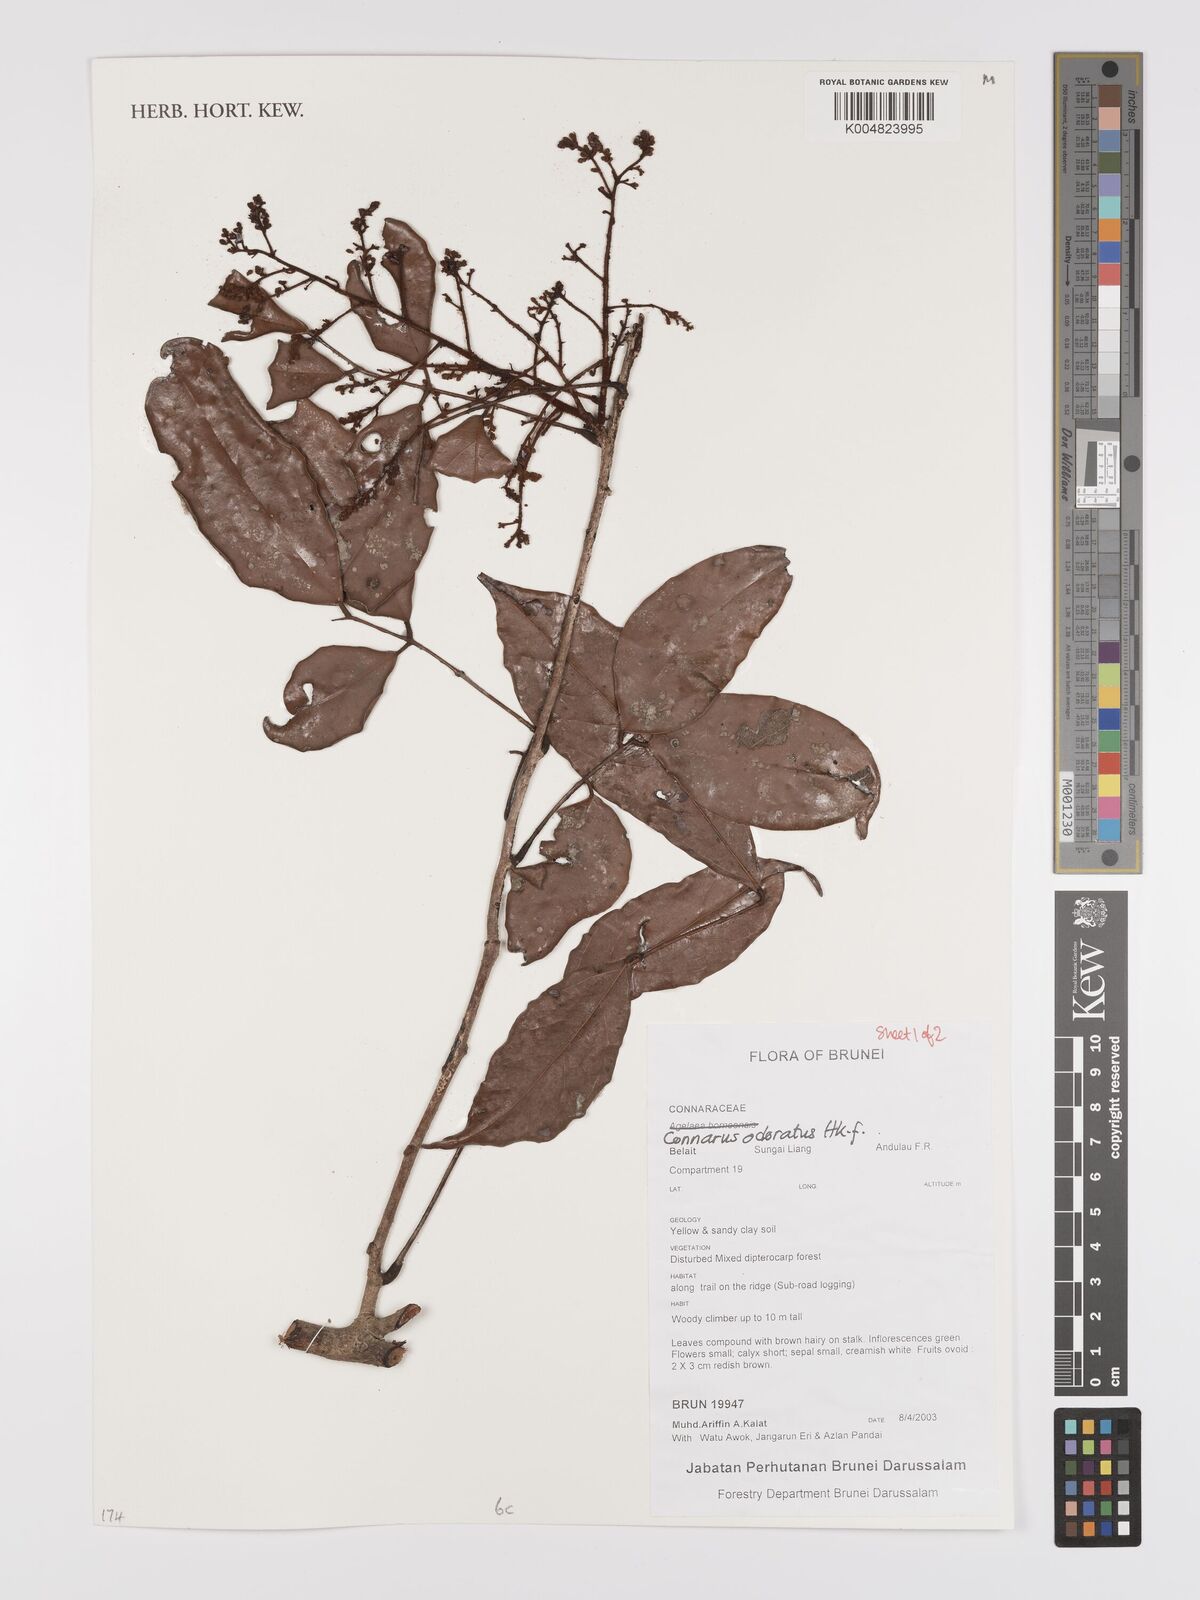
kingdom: Plantae
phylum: Tracheophyta
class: Magnoliopsida
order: Oxalidales
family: Connaraceae
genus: Connarus
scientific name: Connarus odoratus
